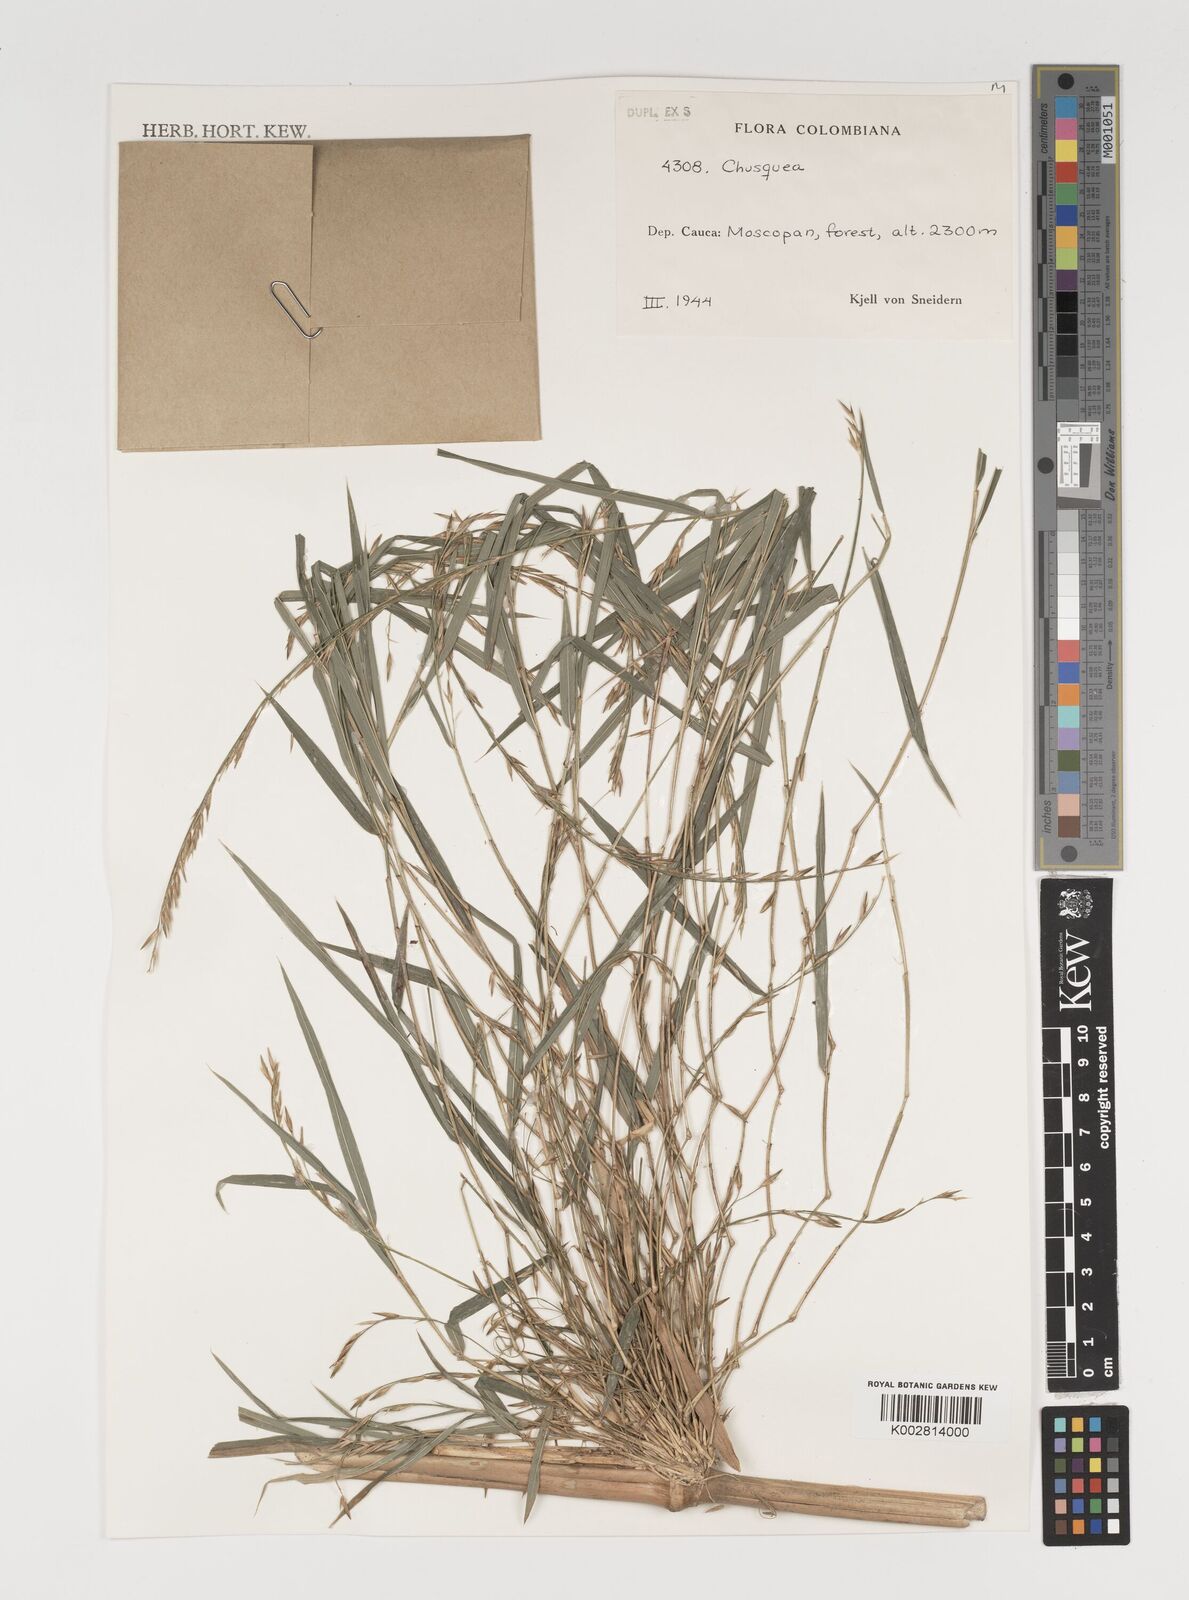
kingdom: Plantae
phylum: Tracheophyta
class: Liliopsida
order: Poales
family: Poaceae
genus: Chusquea
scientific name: Chusquea
